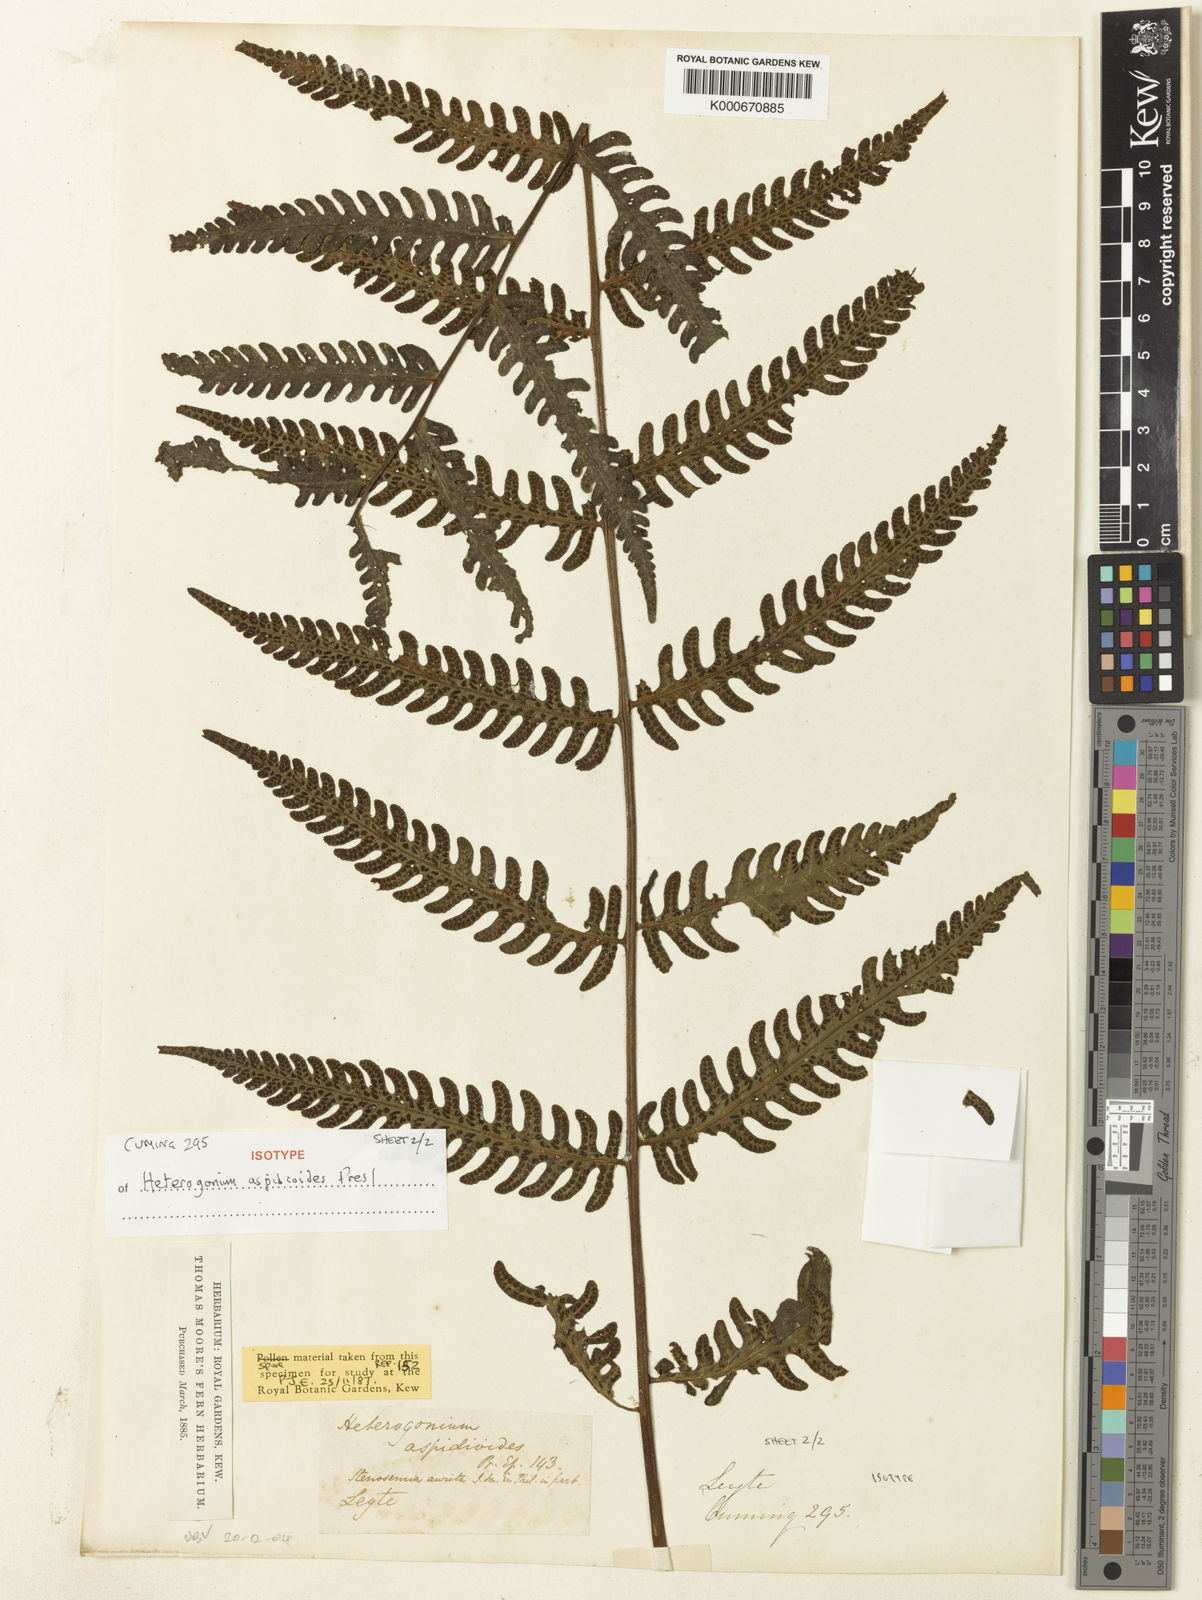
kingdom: Plantae
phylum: Tracheophyta
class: Polypodiopsida
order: Polypodiales
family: Tectariaceae
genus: Tectaria
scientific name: Tectaria aspidioides
